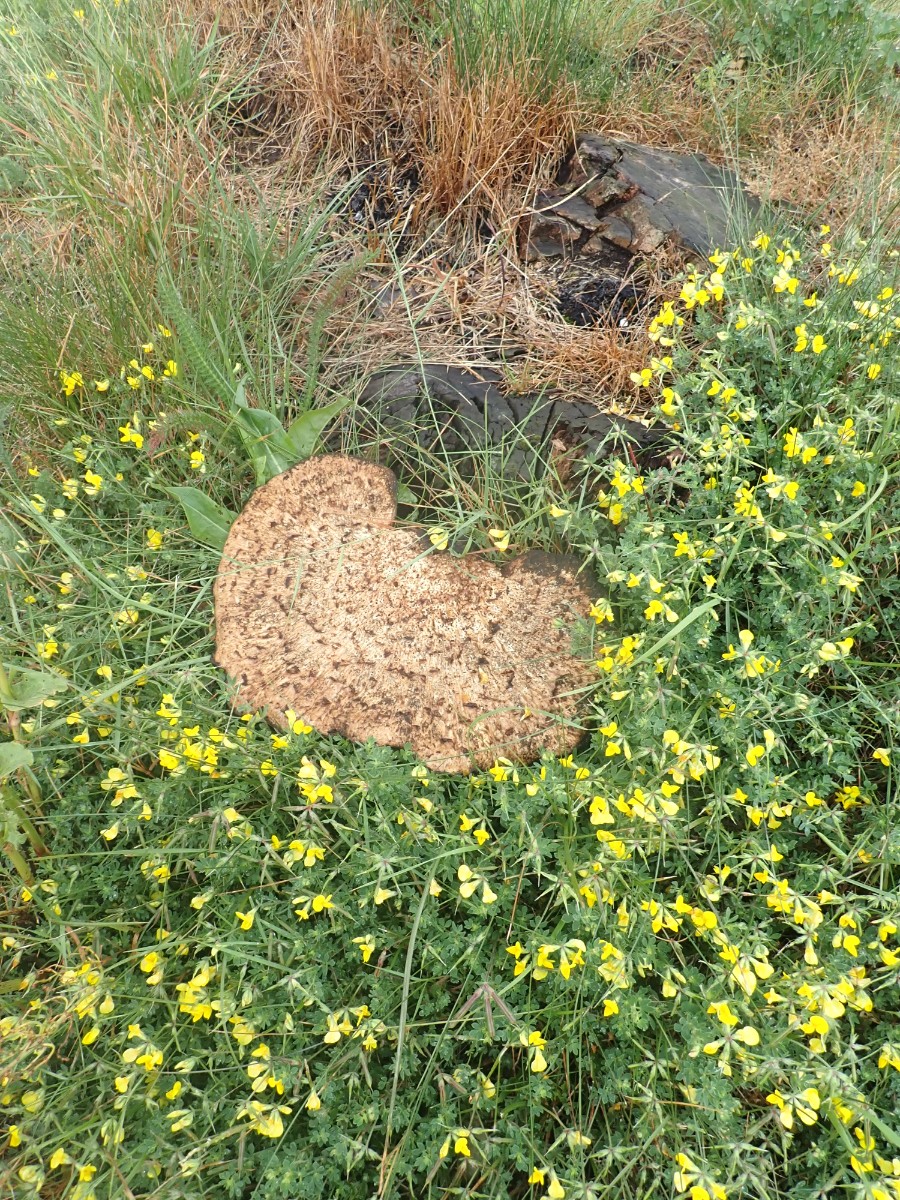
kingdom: Fungi
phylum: Basidiomycota
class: Agaricomycetes
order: Polyporales
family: Polyporaceae
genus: Cerioporus
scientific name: Cerioporus squamosus
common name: skællet stilkporesvamp
